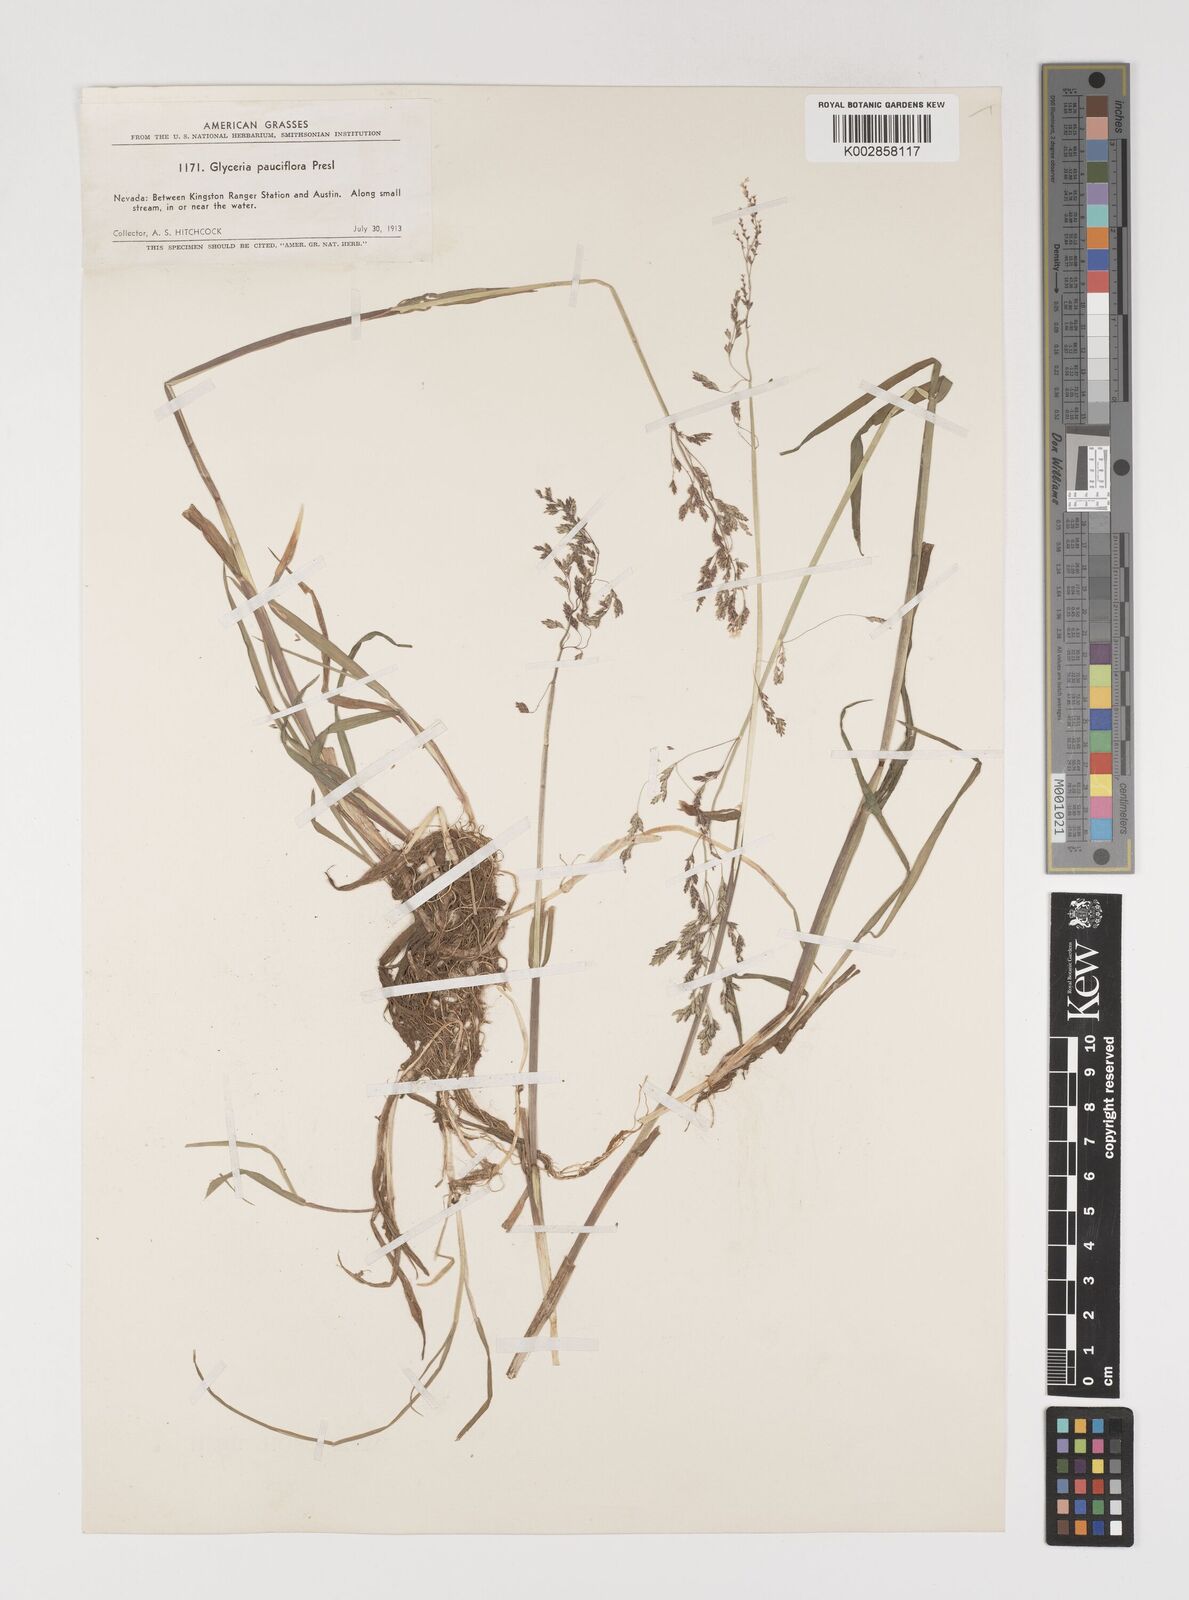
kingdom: Plantae
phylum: Tracheophyta
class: Liliopsida
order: Poales
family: Poaceae
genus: Torreyochloa
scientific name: Torreyochloa pallida
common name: Pale false mannagrass
